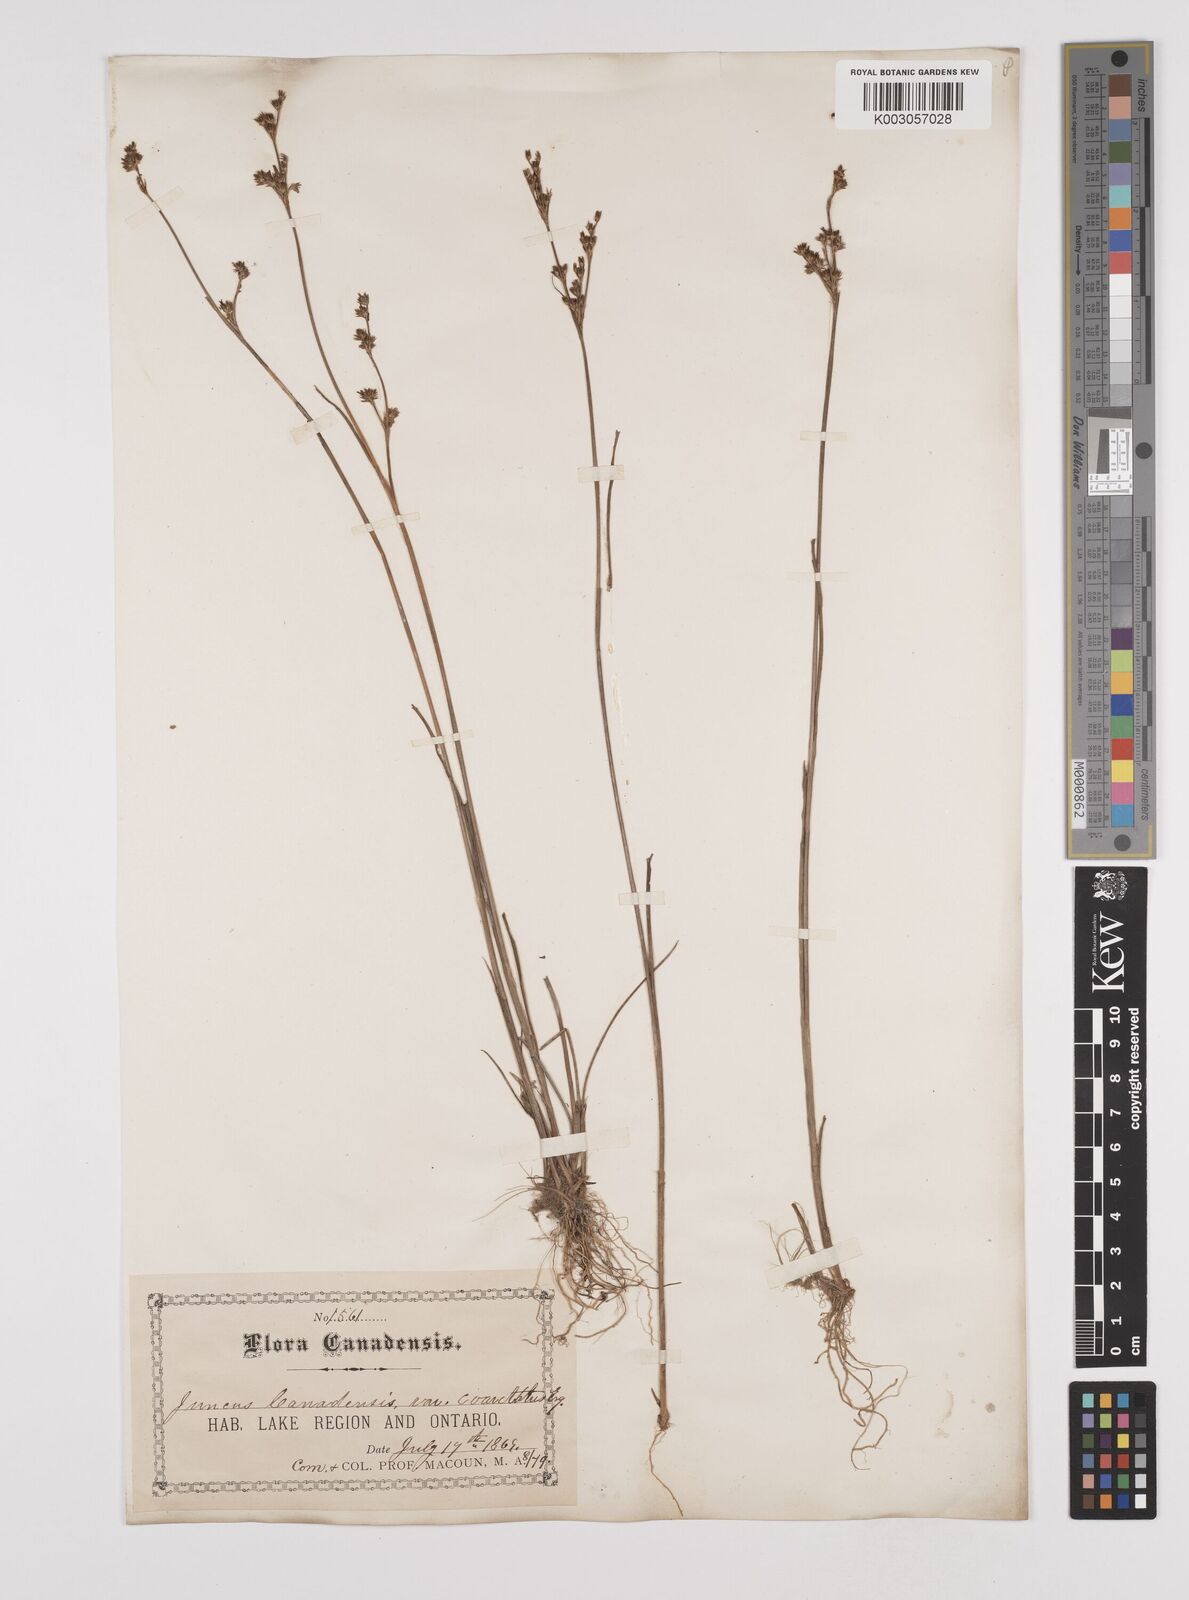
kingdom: Plantae
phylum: Tracheophyta
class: Liliopsida
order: Poales
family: Juncaceae
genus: Juncus
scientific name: Juncus canadensis
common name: Canada rush
